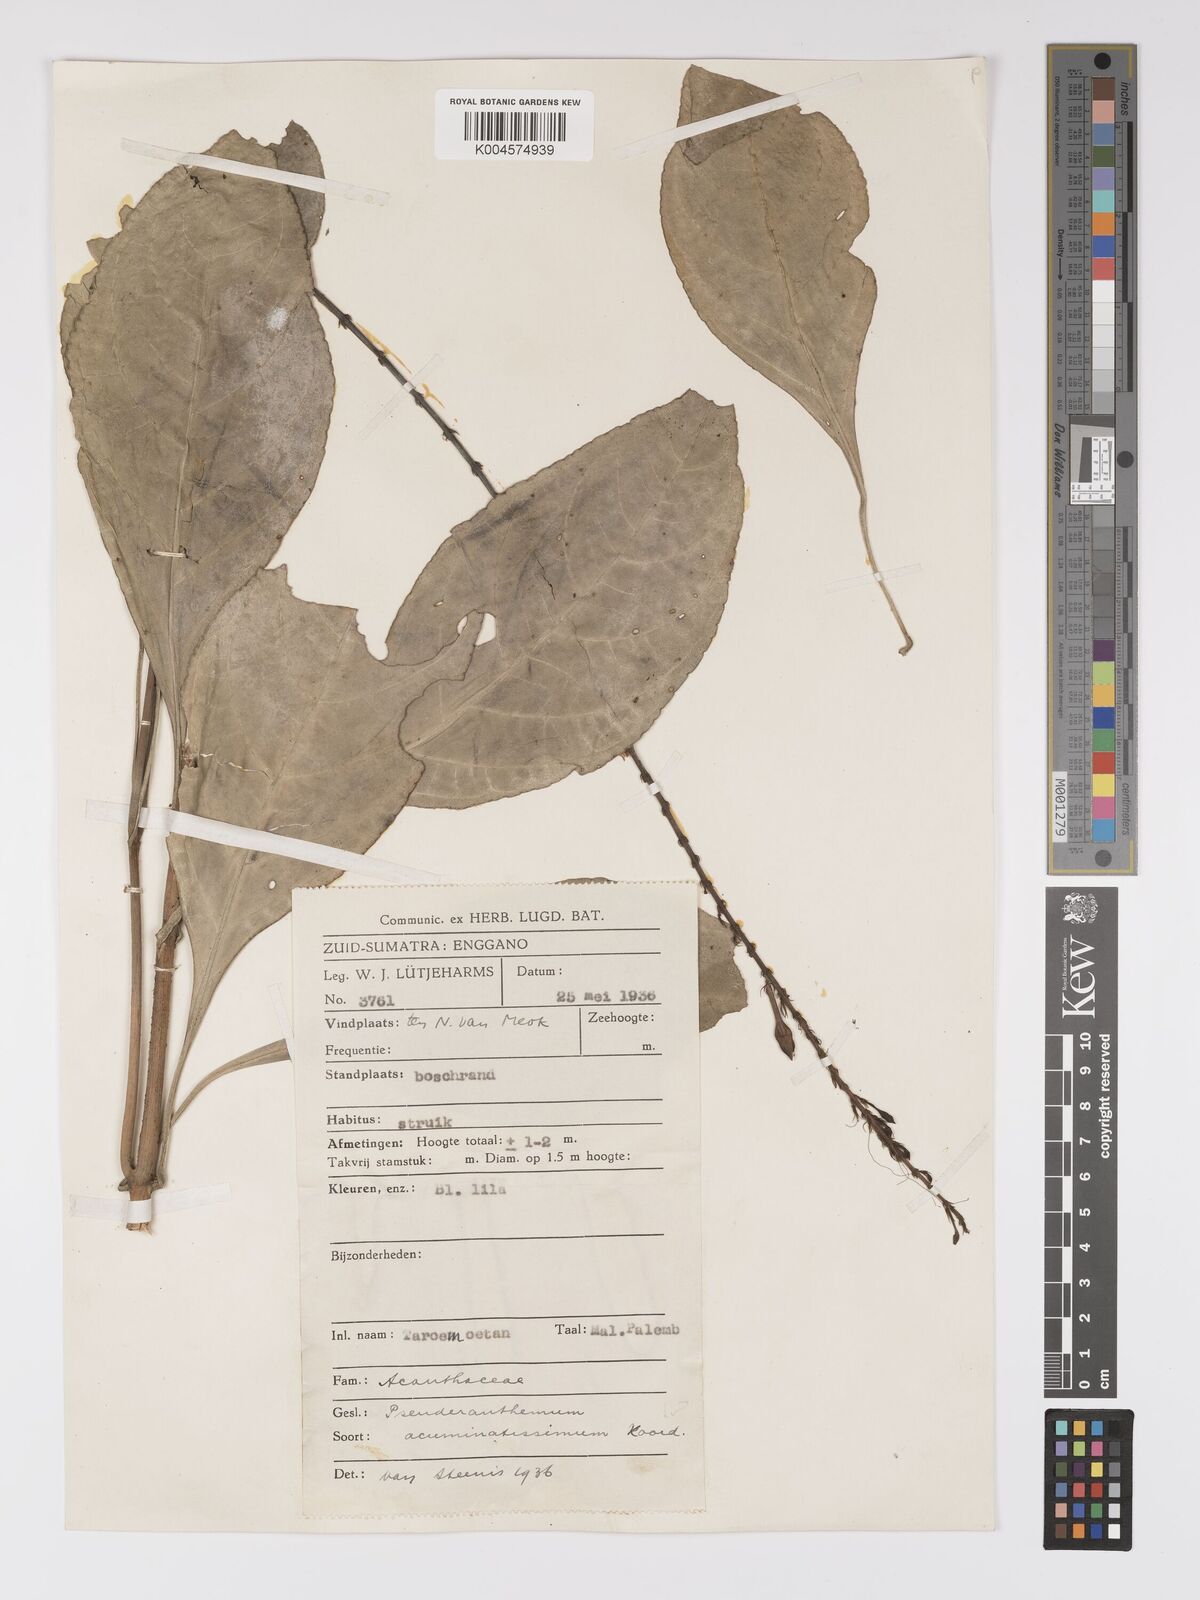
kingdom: Plantae
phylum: Tracheophyta
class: Magnoliopsida
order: Lamiales
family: Acanthaceae
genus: Pseuderanthemum
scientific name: Pseuderanthemum acuminatissimum
